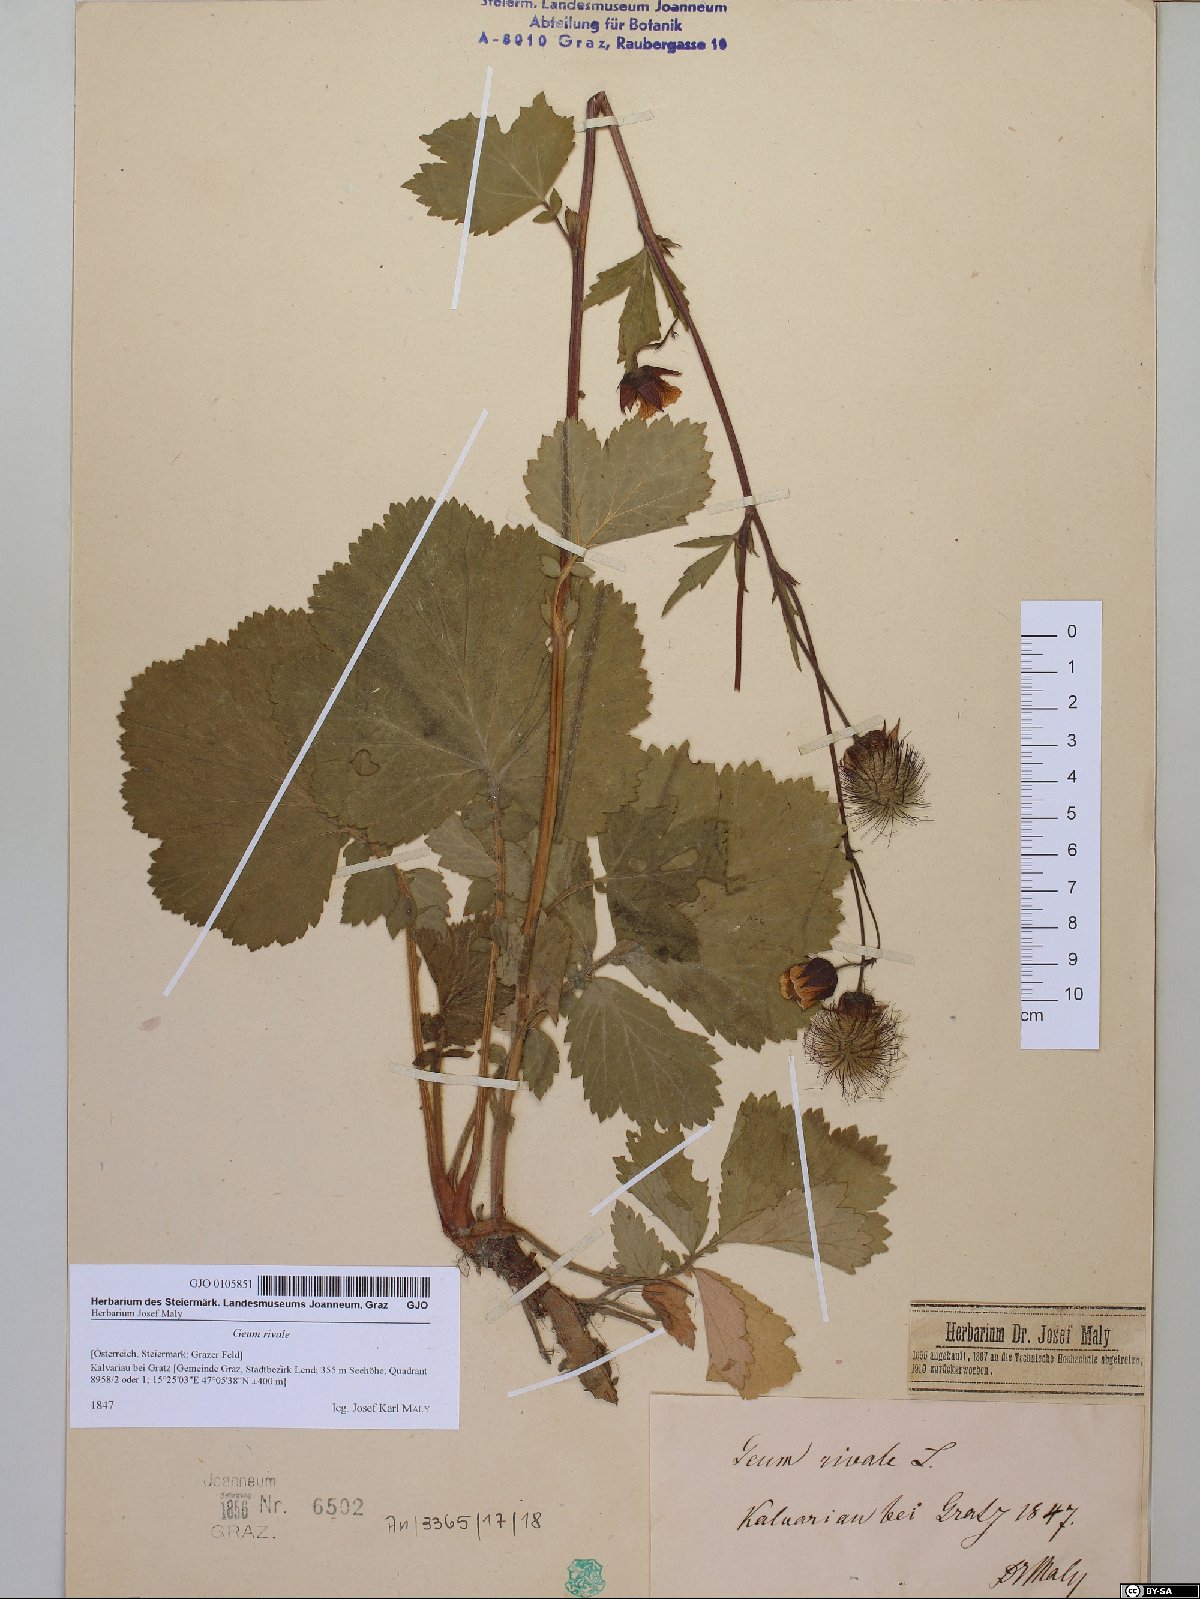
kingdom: Plantae
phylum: Tracheophyta
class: Magnoliopsida
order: Rosales
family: Rosaceae
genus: Geum
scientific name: Geum rivale
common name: Water avens
